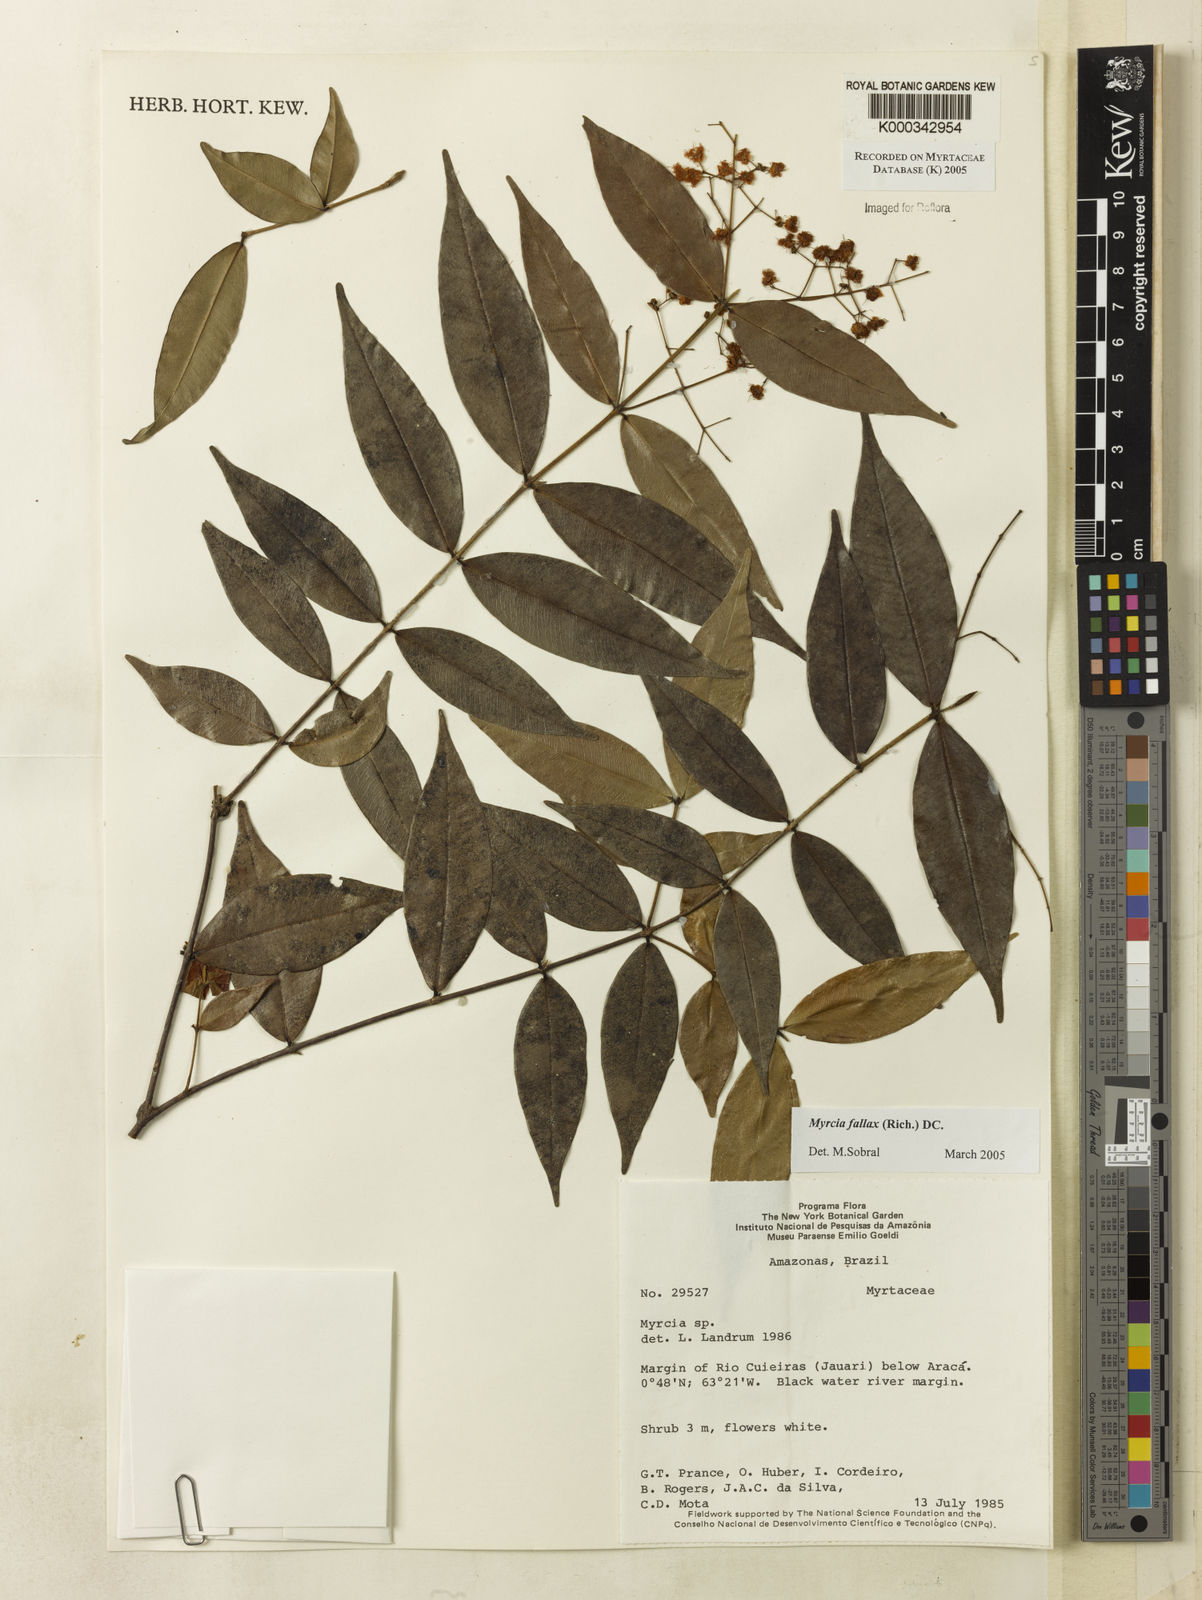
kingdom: Plantae
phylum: Tracheophyta
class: Magnoliopsida
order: Myrtales
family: Myrtaceae
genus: Myrcia
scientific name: Myrcia splendens
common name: Surinam cherry
